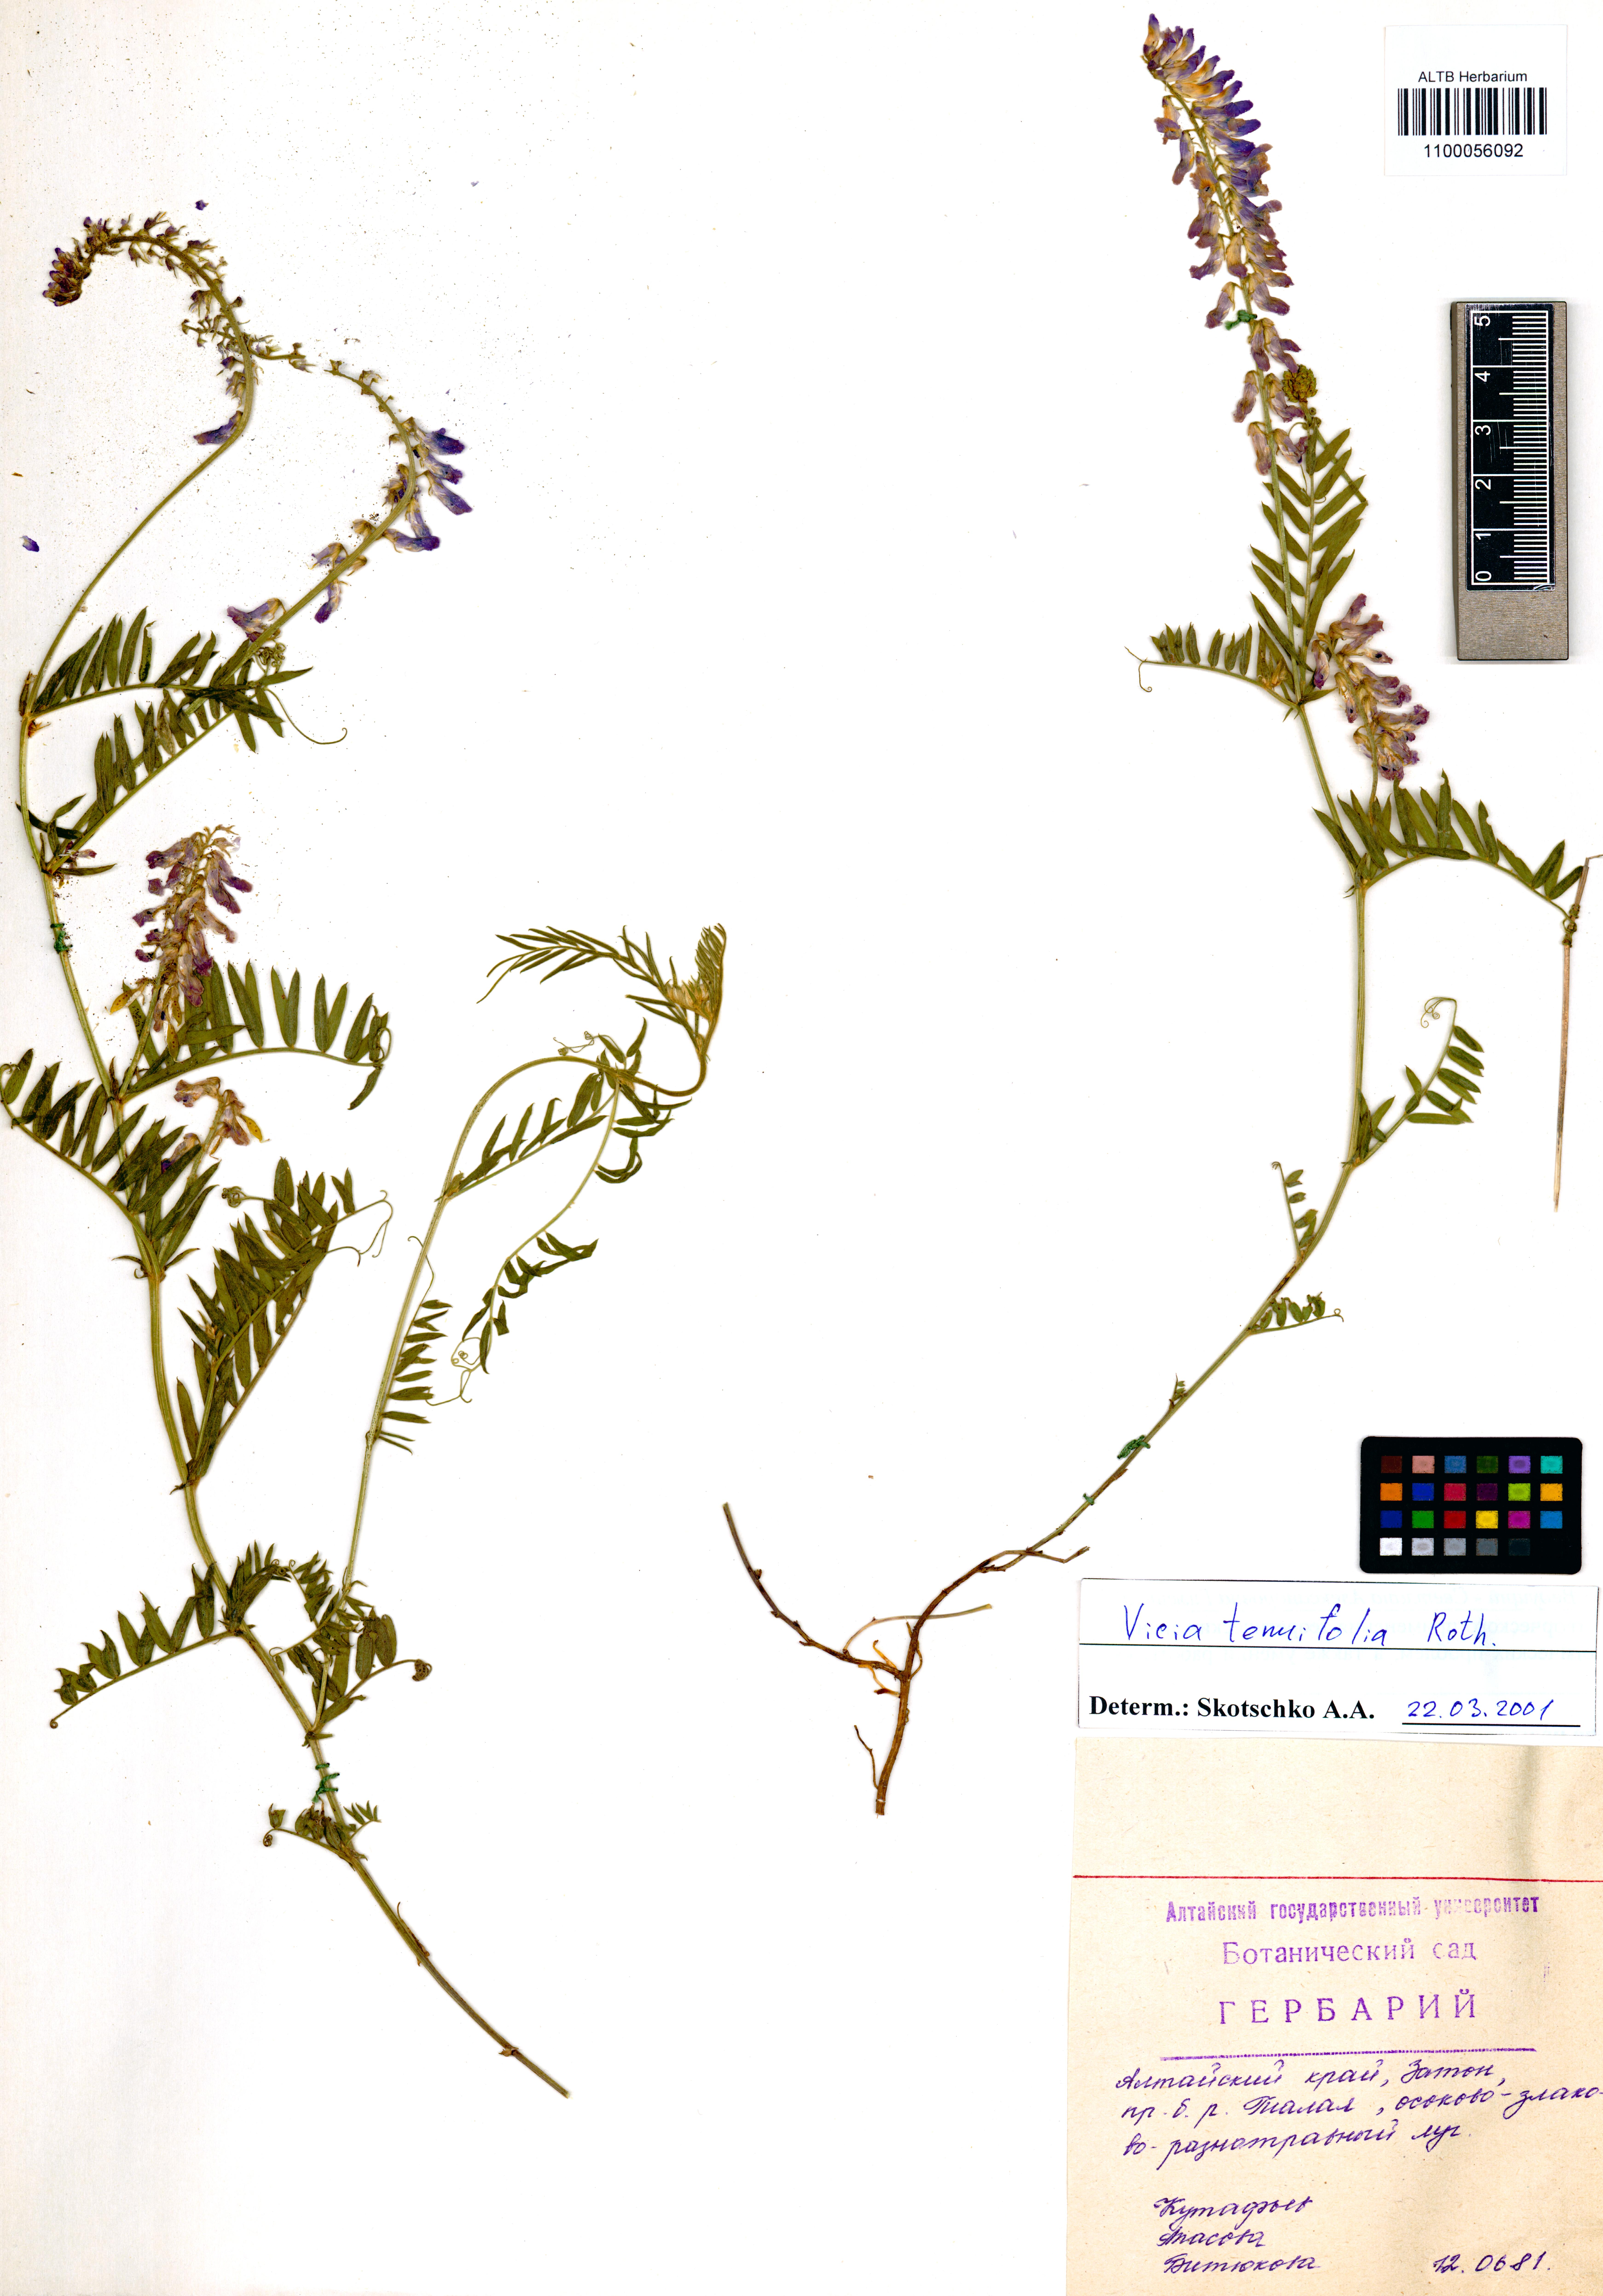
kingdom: Plantae
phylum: Tracheophyta
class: Magnoliopsida
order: Fabales
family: Fabaceae
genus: Vicia
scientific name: Vicia tenuifolia
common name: Fine-leaved vetch
